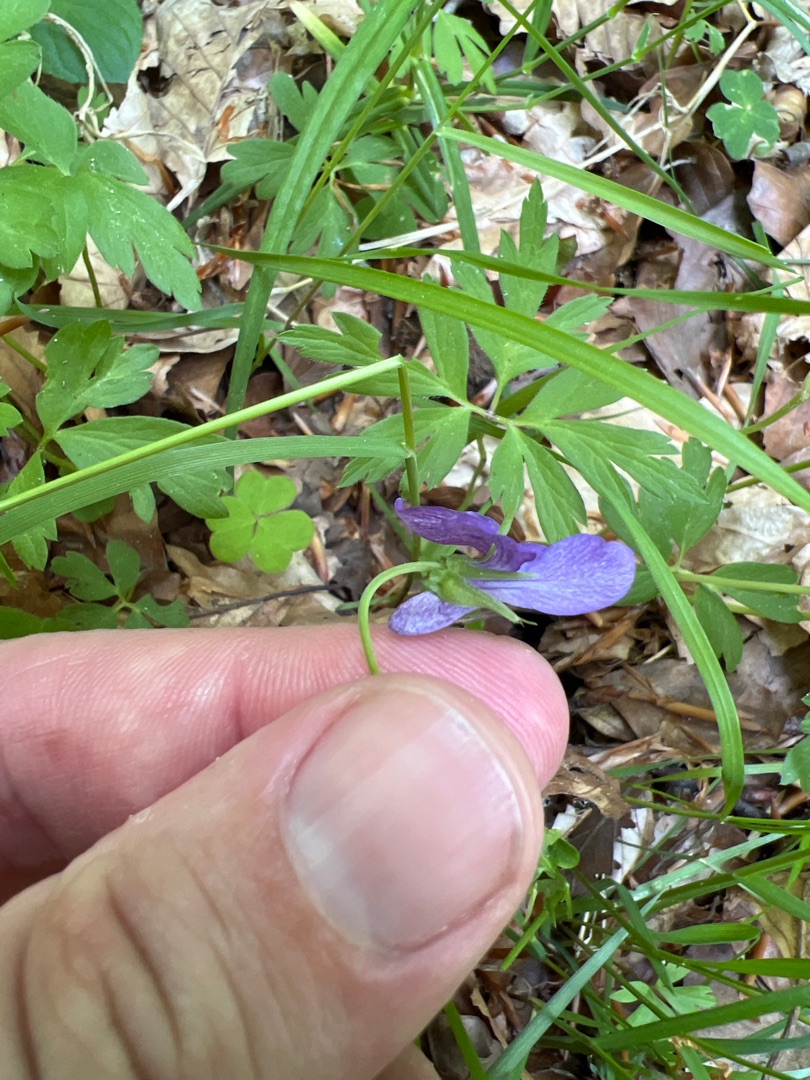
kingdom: Plantae
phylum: Tracheophyta
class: Magnoliopsida
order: Malpighiales
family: Violaceae
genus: Viola
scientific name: Viola reichenbachiana
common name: Skov-viol
